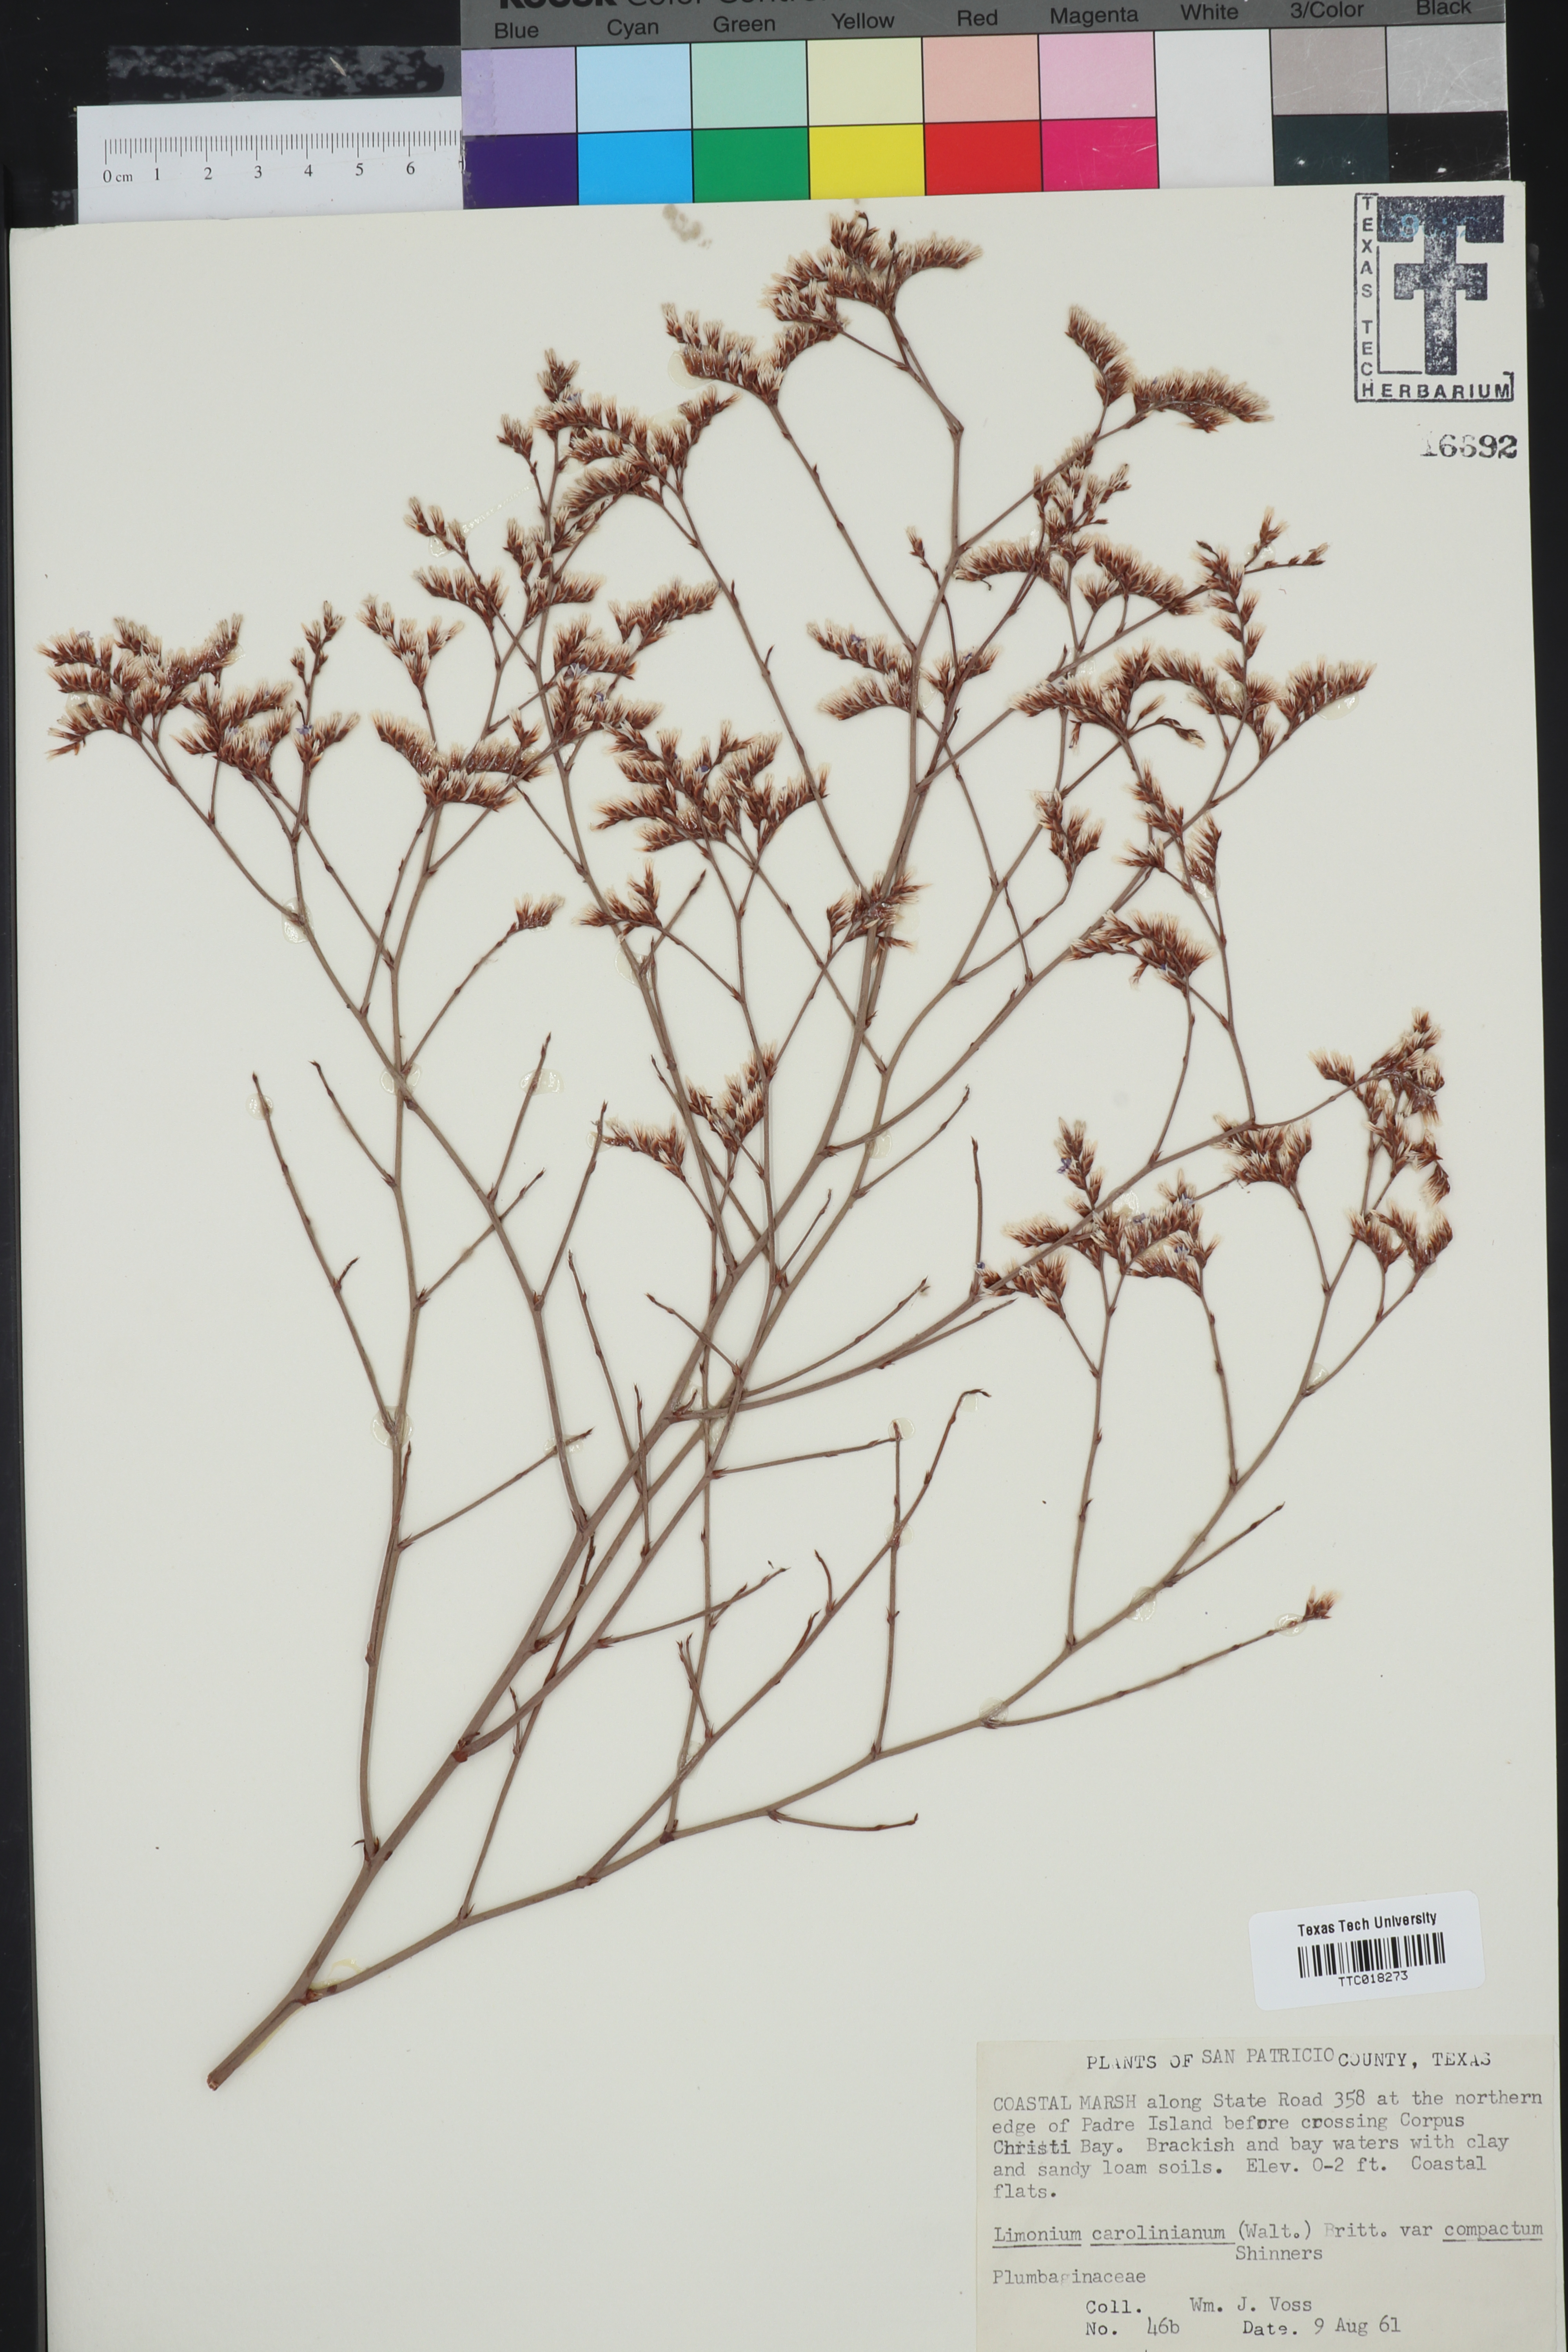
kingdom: Plantae
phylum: Tracheophyta
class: Magnoliopsida
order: Caryophyllales
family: Plumbaginaceae
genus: Limonium
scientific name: Limonium carolinianum
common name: Carolina sea lavender
